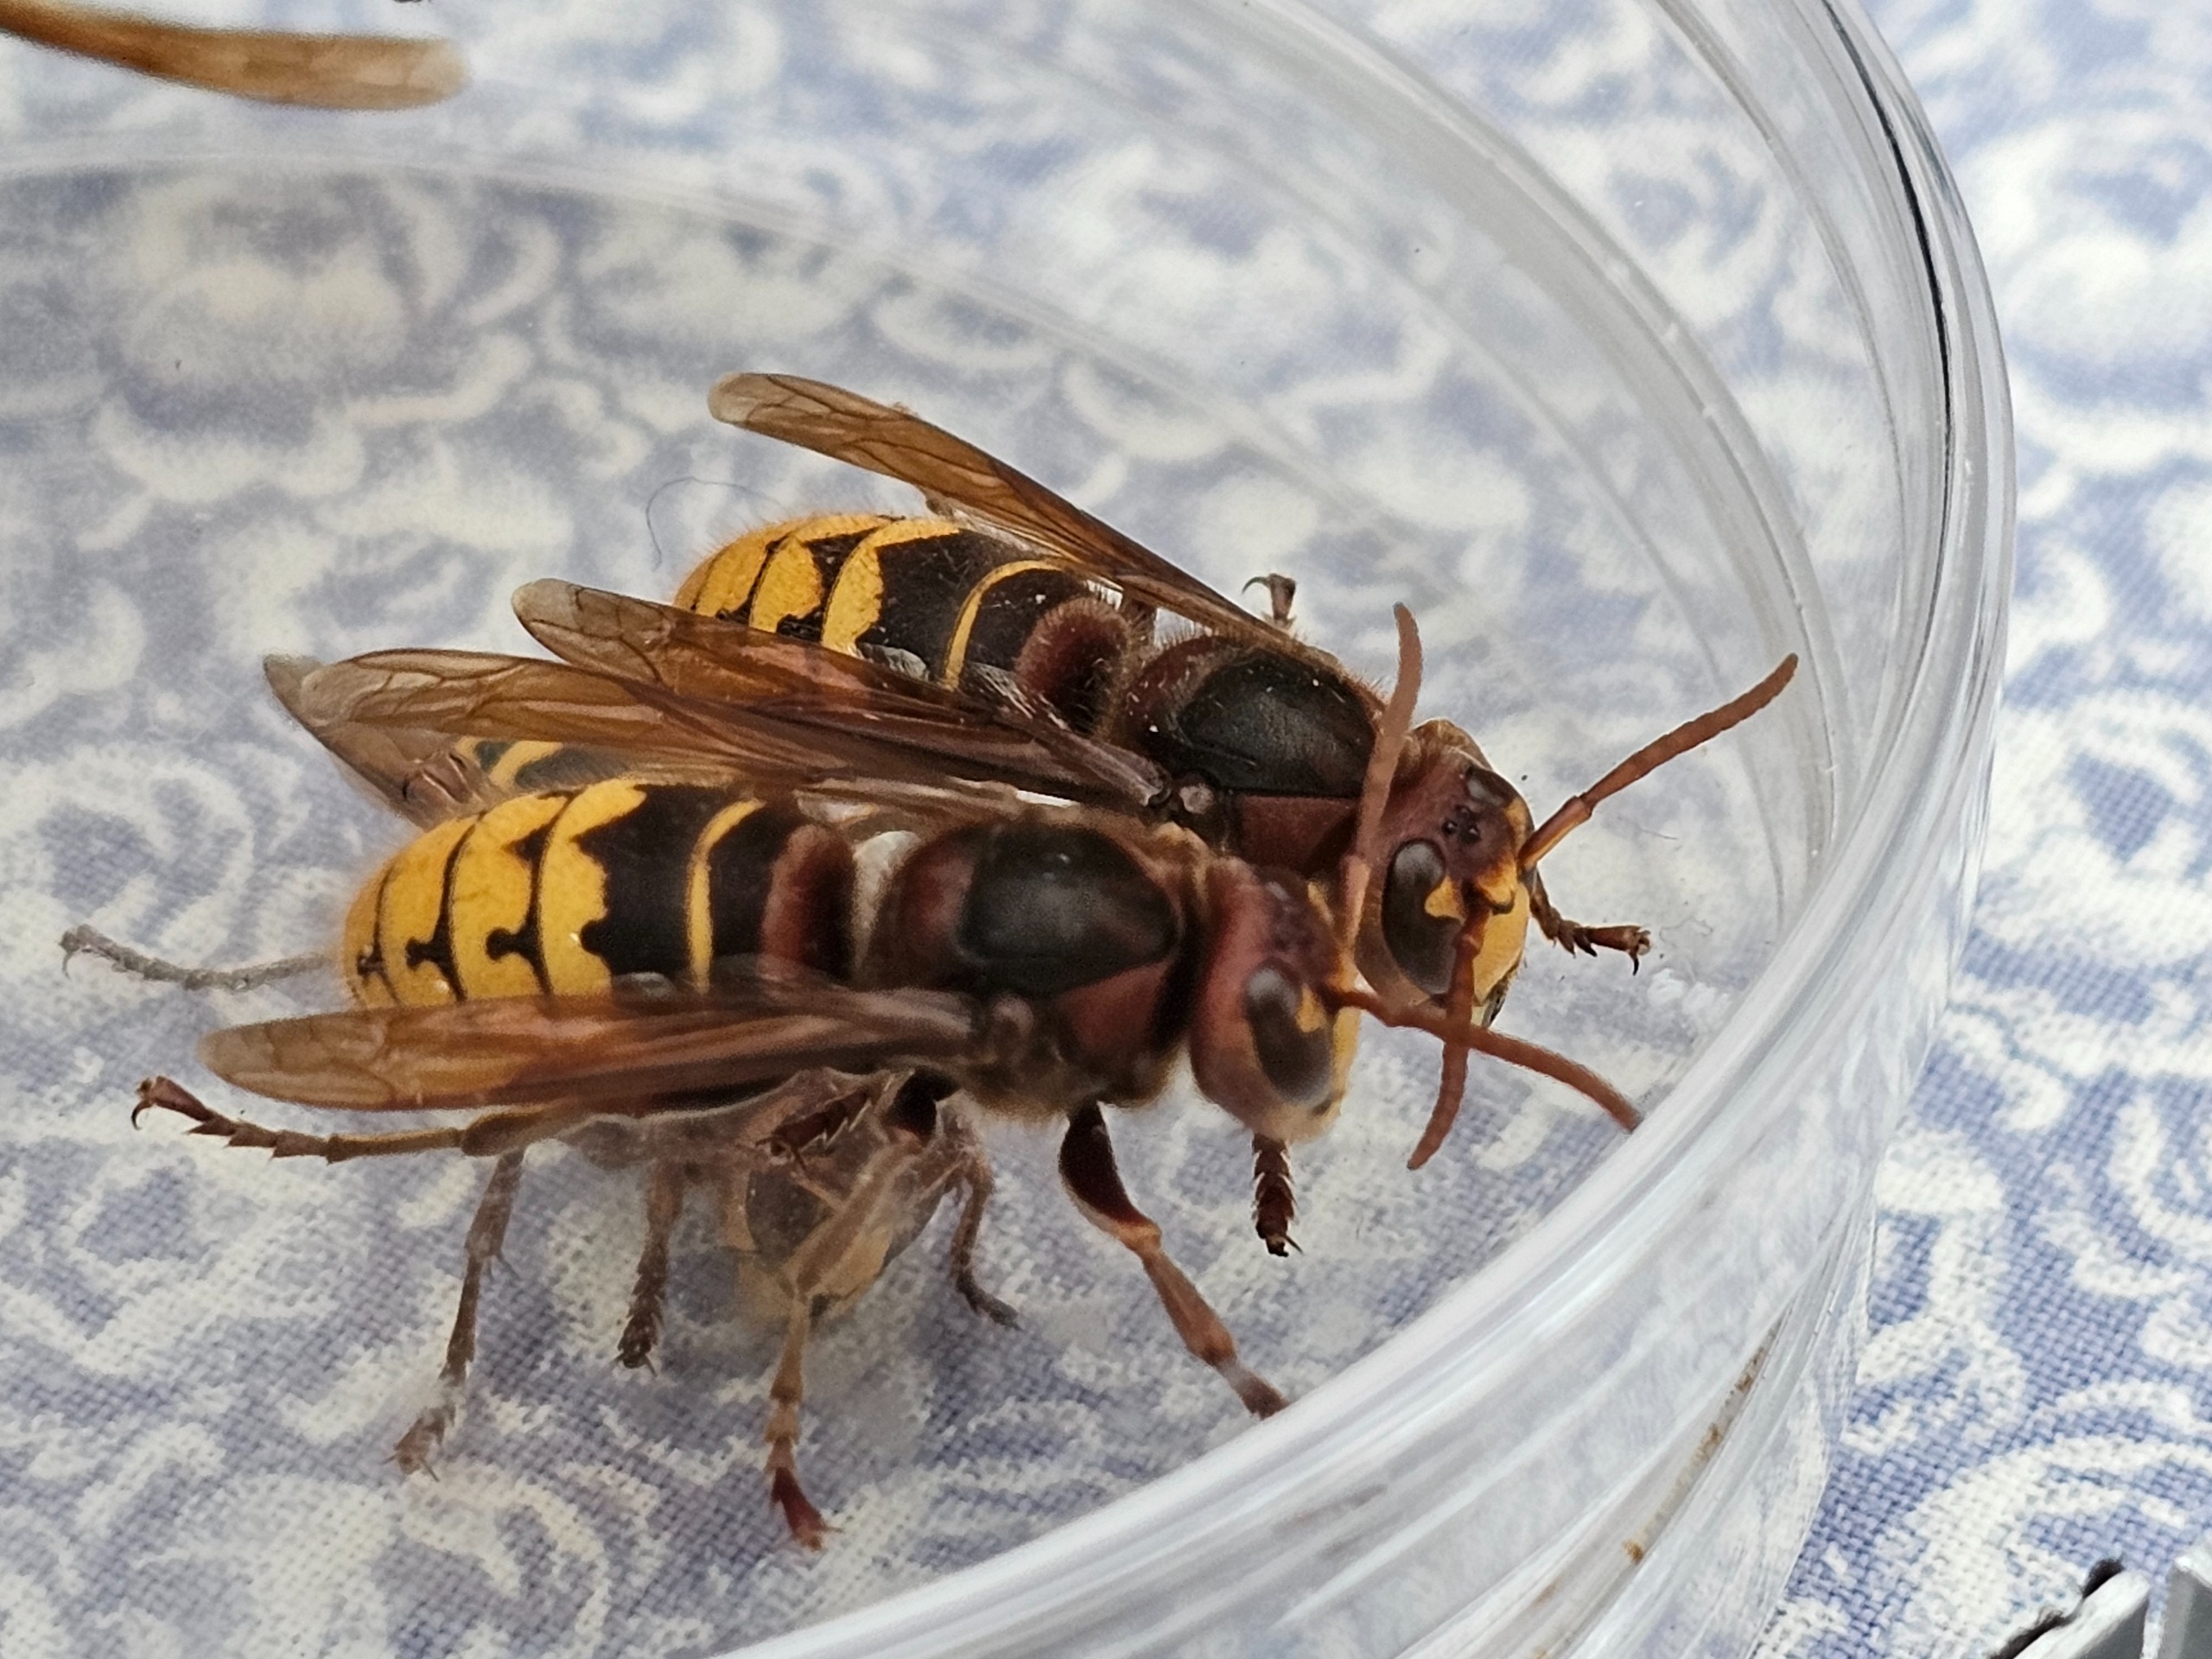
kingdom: Animalia
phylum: Arthropoda
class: Insecta
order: Hymenoptera
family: Vespidae
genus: Vespa
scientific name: Vespa crabro
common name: Stor gedehams
